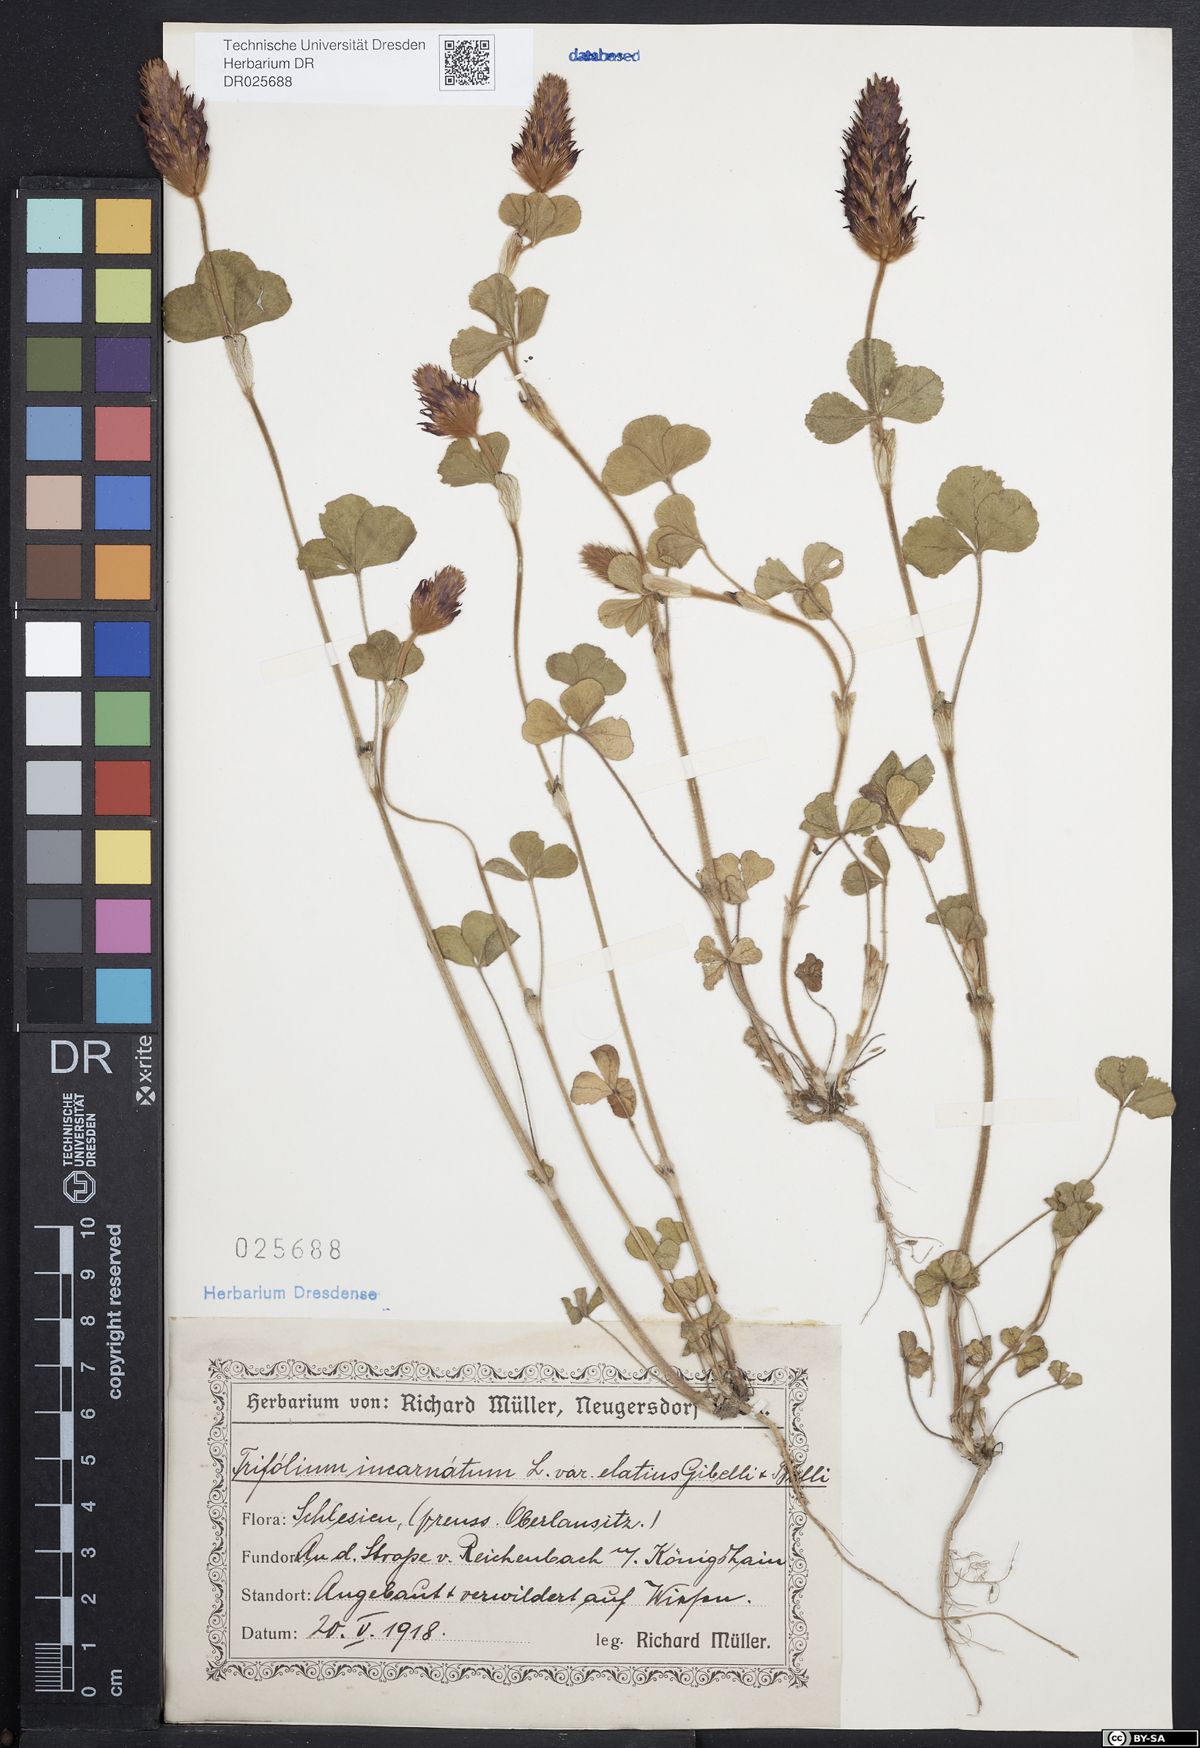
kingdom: Plantae
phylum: Tracheophyta
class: Magnoliopsida
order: Fabales
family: Fabaceae
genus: Trifolium
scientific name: Trifolium incarnatum
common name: Crimson clover
